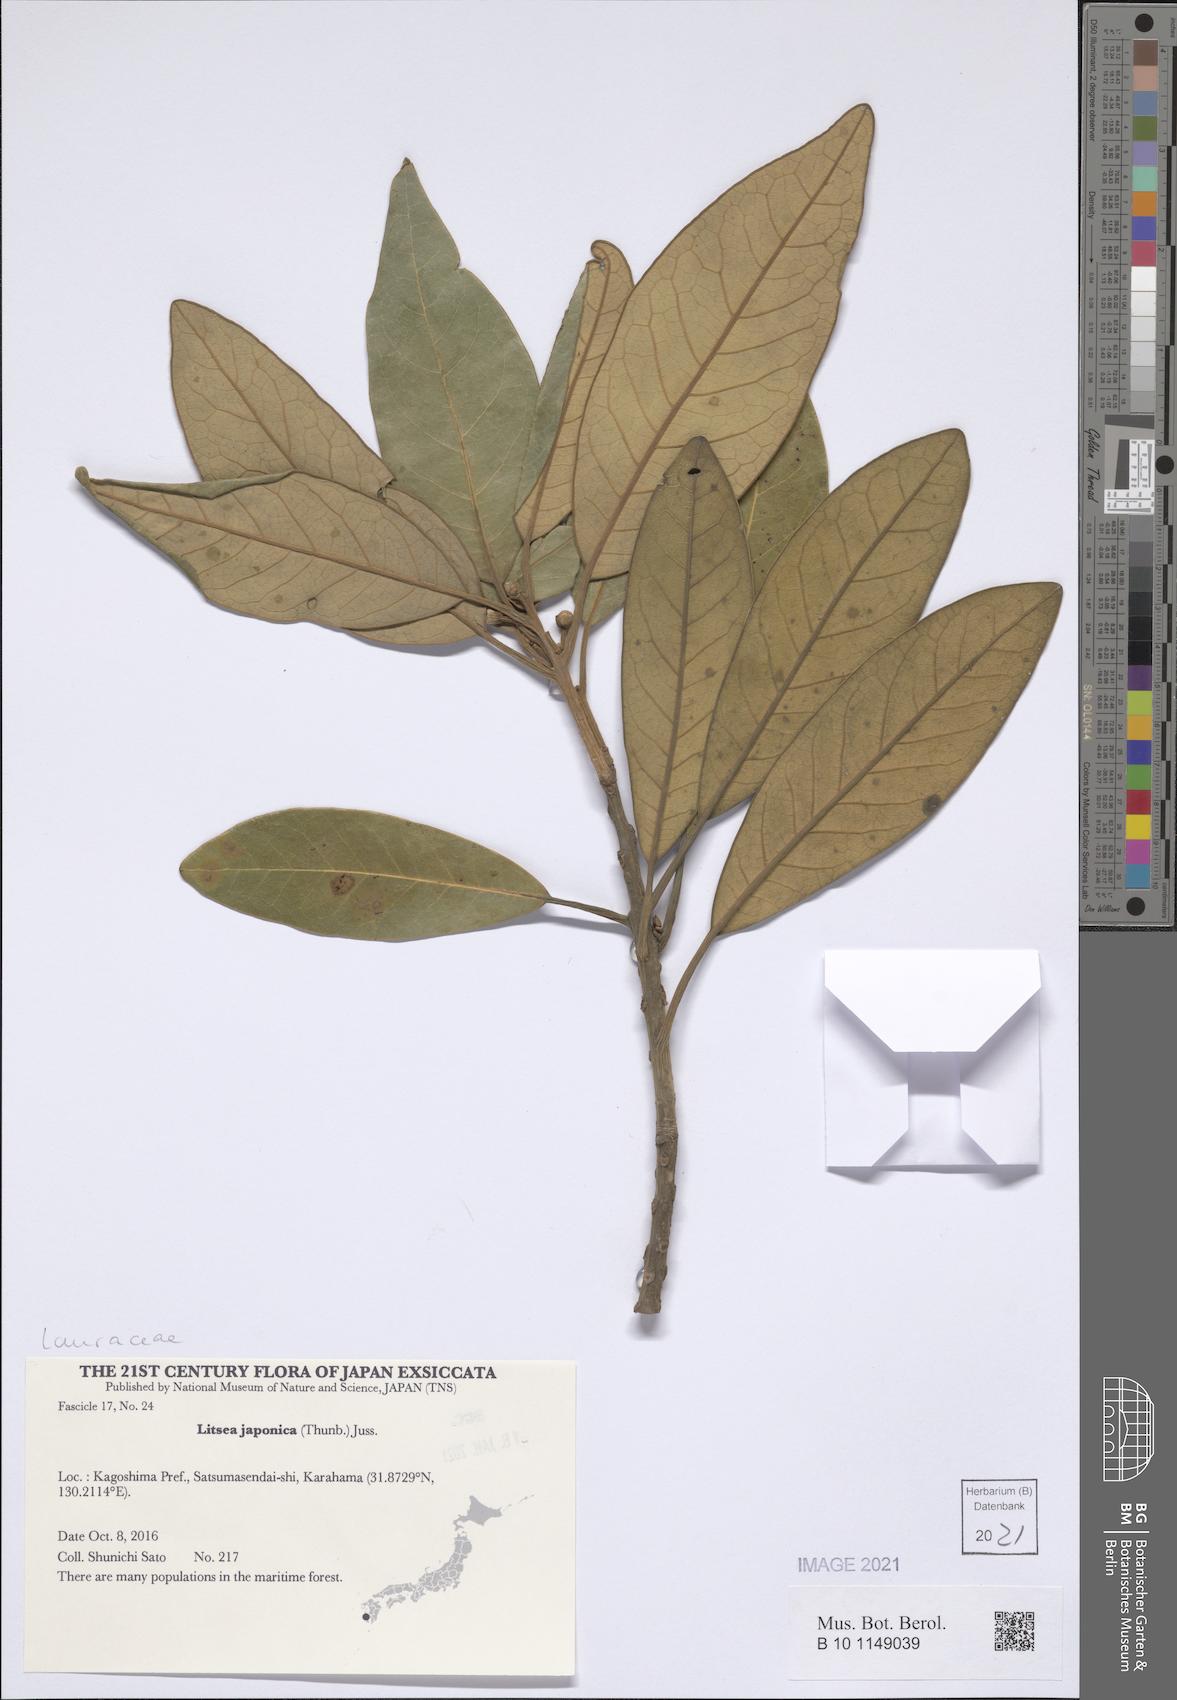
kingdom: Plantae
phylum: Tracheophyta
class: Magnoliopsida
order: Laurales
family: Lauraceae
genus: Litsea
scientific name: Litsea japonica
